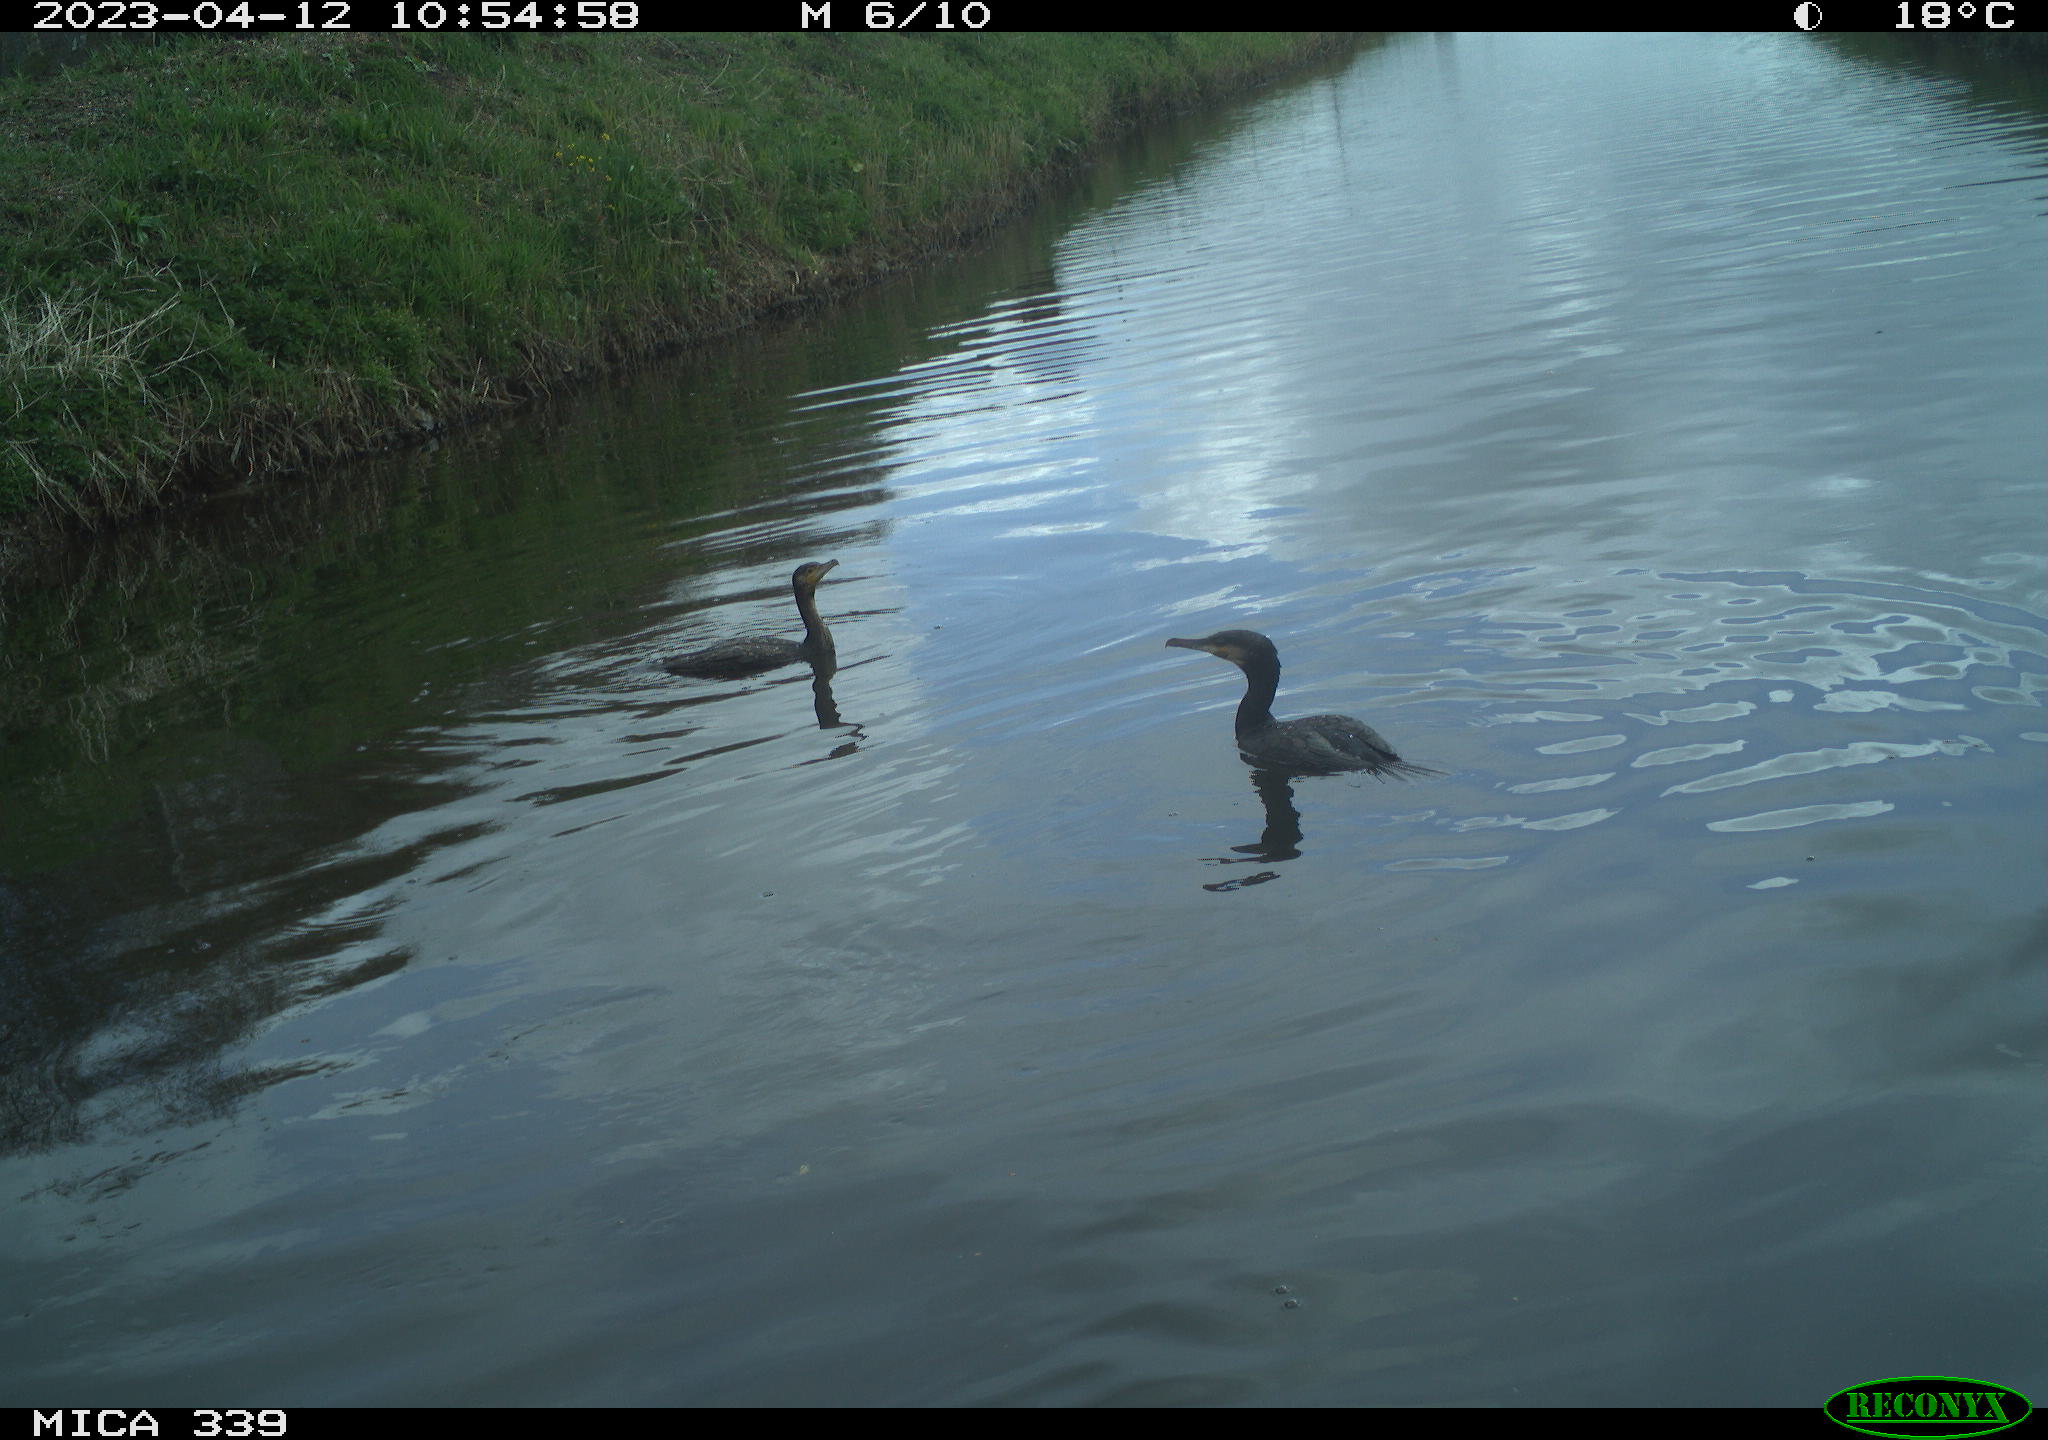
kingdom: Animalia
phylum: Chordata
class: Aves
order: Anseriformes
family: Anatidae
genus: Anas
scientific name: Anas
